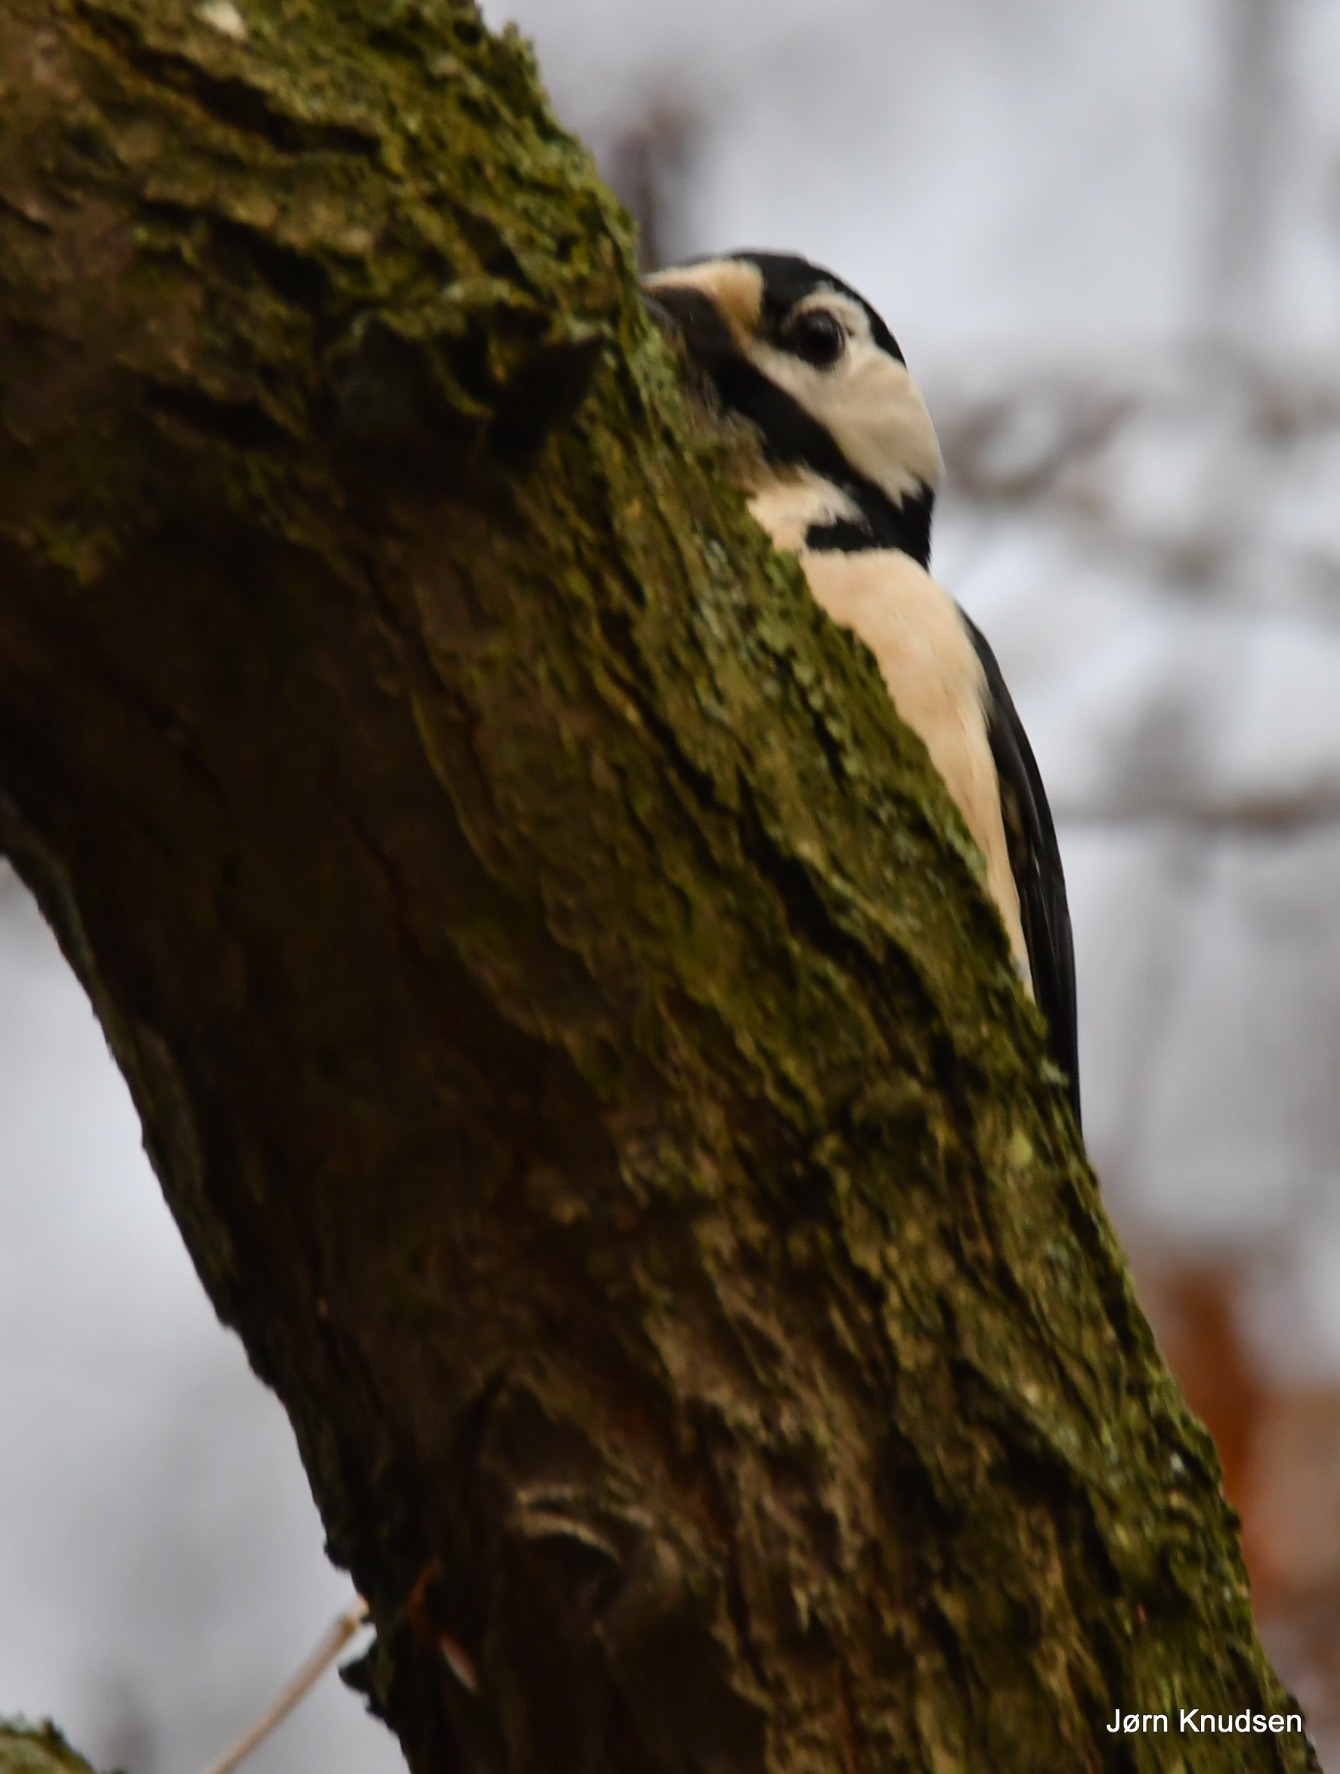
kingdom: Animalia
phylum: Chordata
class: Aves
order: Piciformes
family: Picidae
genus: Dendrocopos
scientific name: Dendrocopos major
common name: Stor flagspætte
